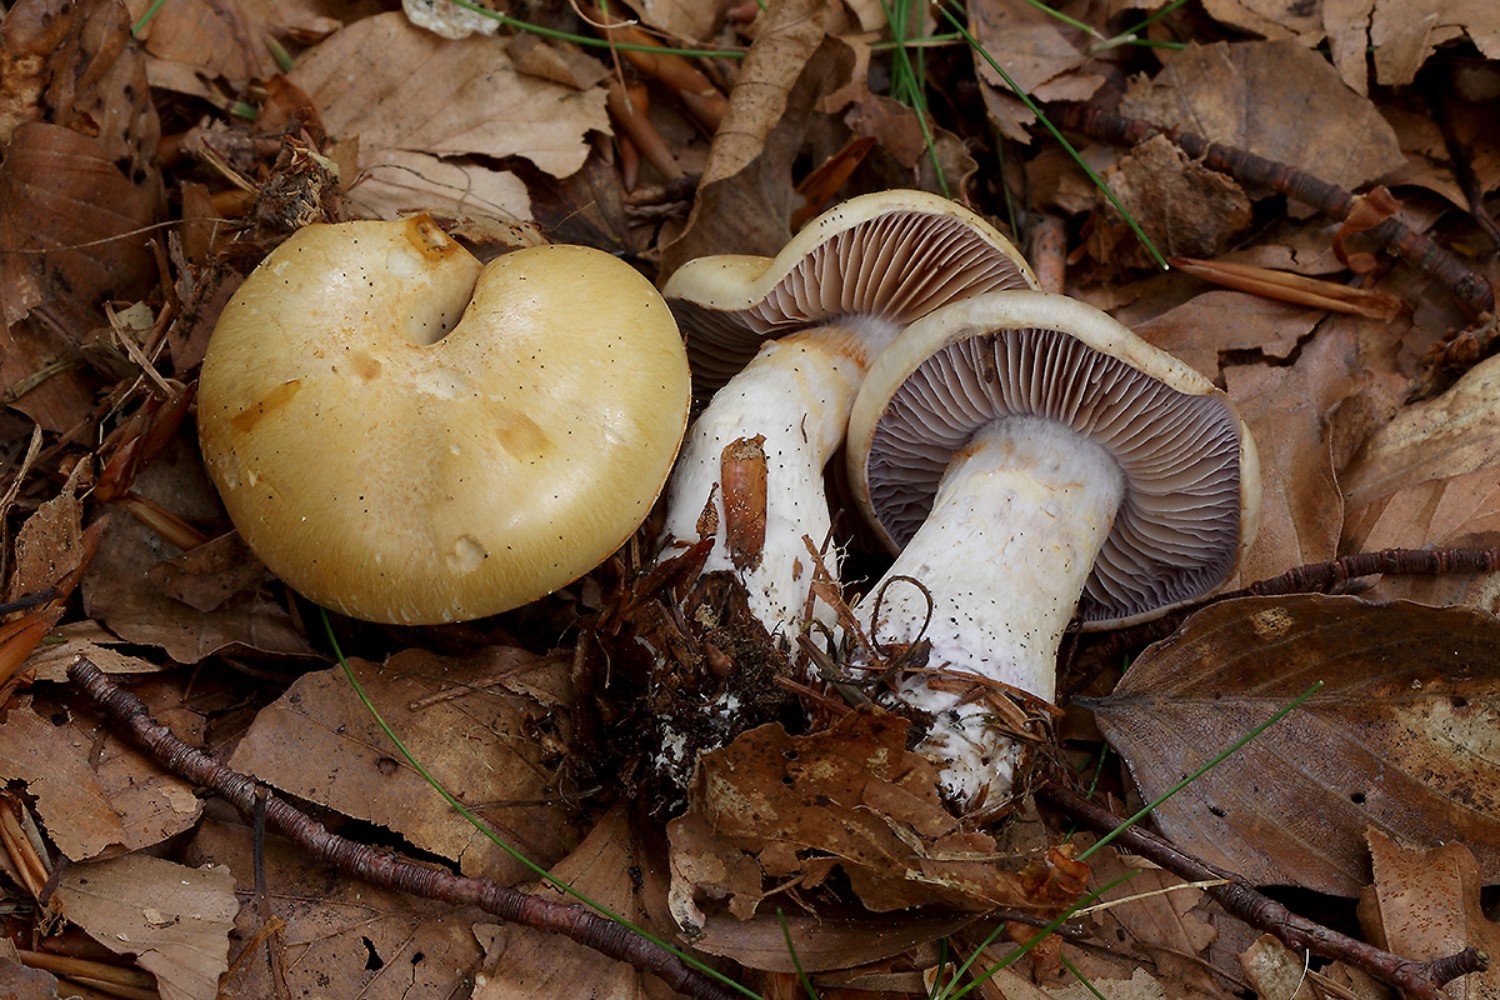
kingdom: Fungi
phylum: Basidiomycota
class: Agaricomycetes
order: Agaricales
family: Cortinariaceae
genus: Cortinarius
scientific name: Cortinarius delibutus
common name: gul slørhat
